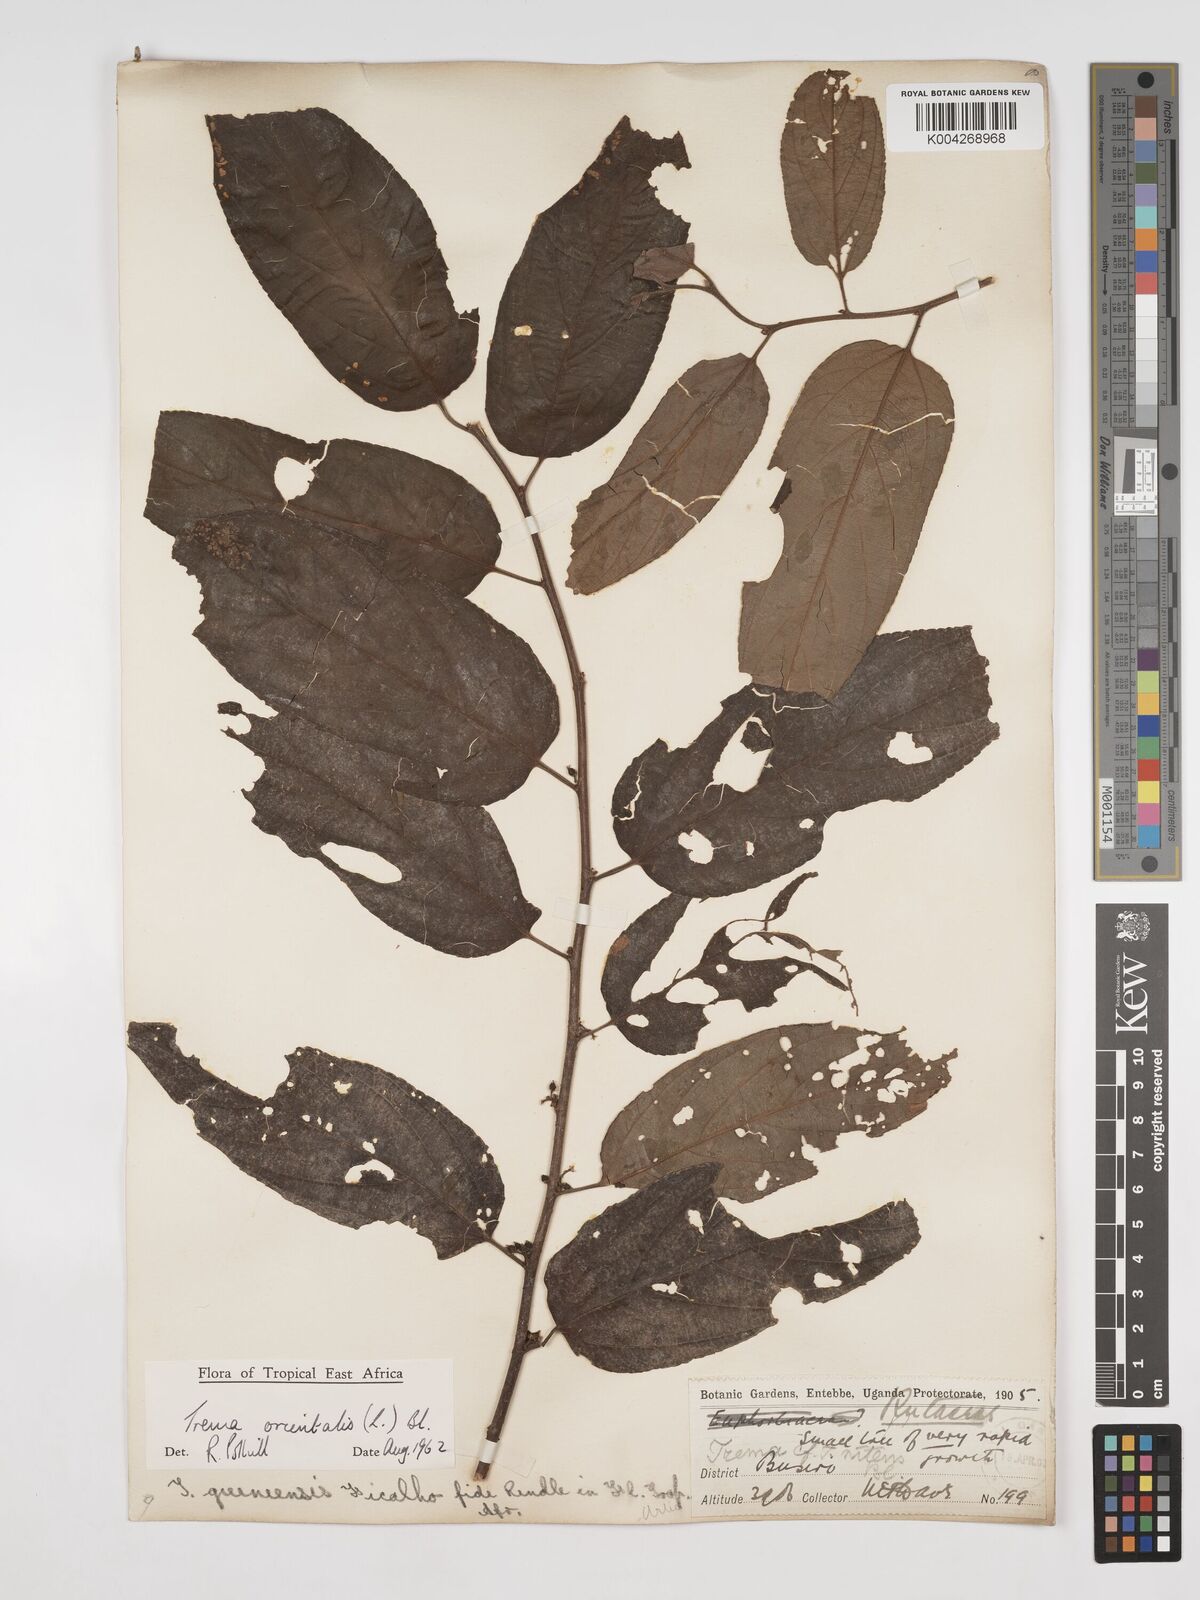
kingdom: Plantae
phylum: Tracheophyta
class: Magnoliopsida
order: Rosales
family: Cannabaceae
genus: Trema
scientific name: Trema orientale
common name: Indian charcoal tree
